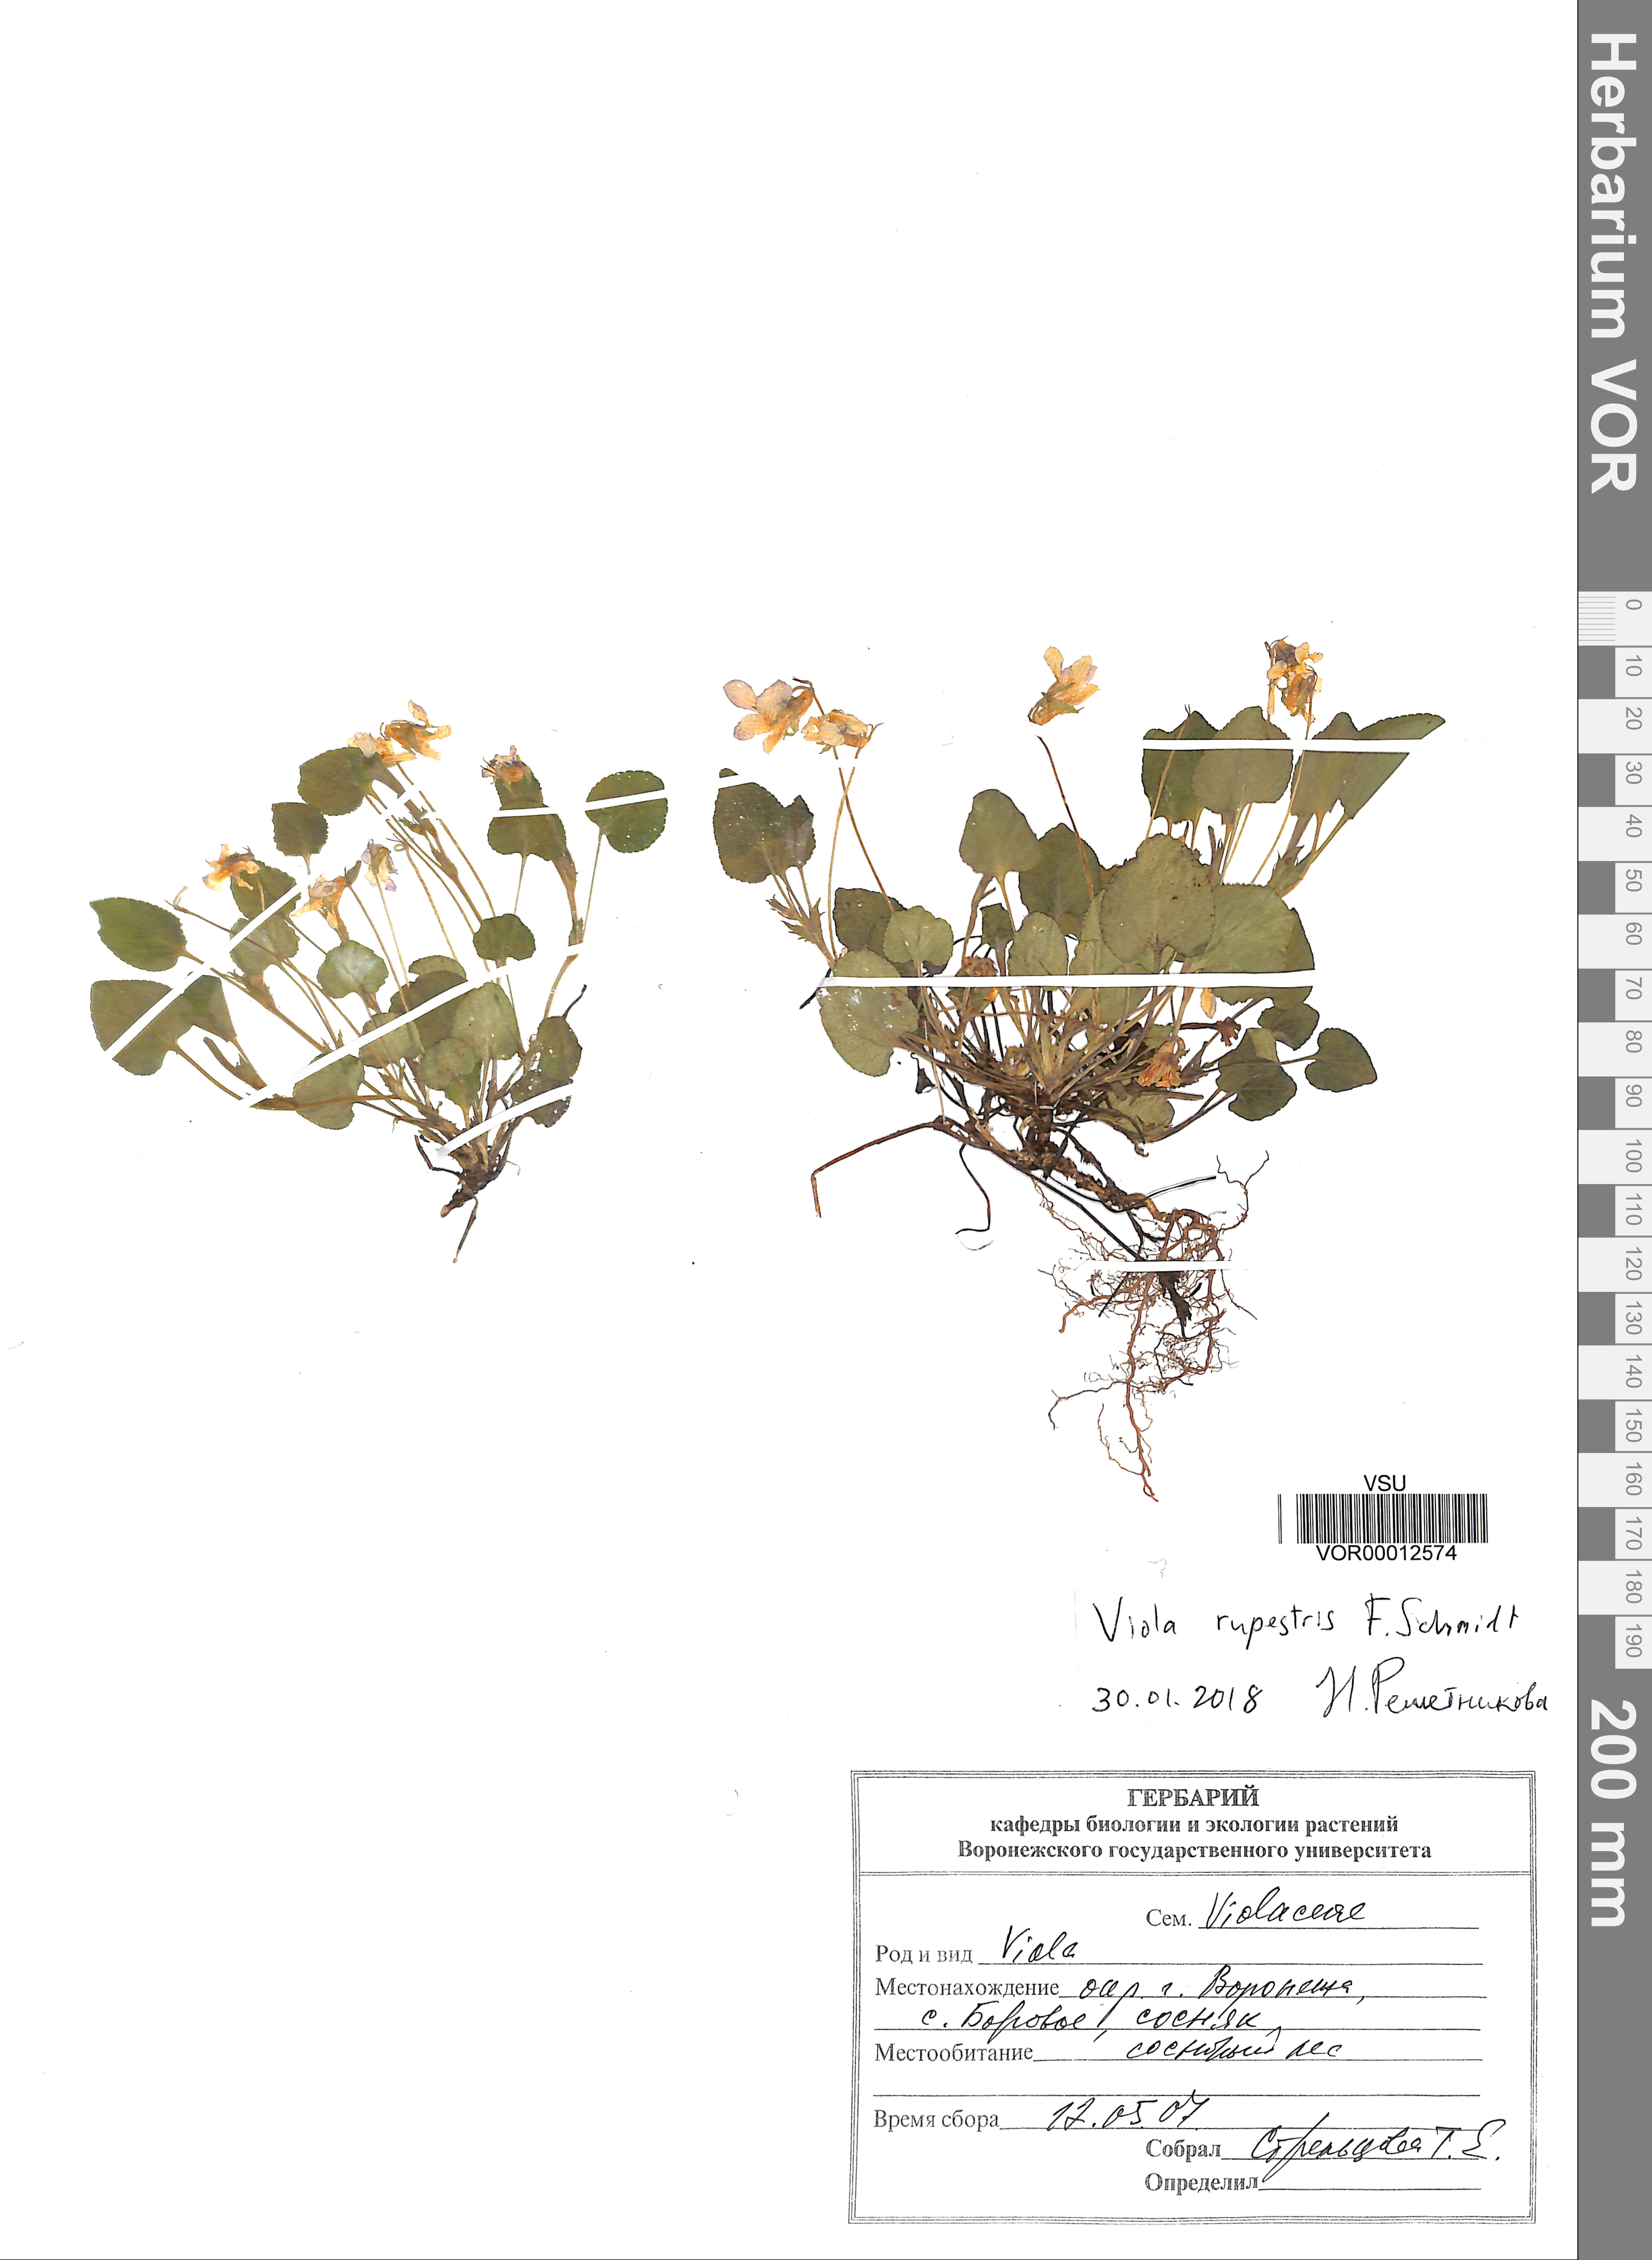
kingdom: Plantae
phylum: Tracheophyta
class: Magnoliopsida
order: Malpighiales
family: Violaceae
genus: Viola
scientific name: Viola rupestris
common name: Teesdale violet
